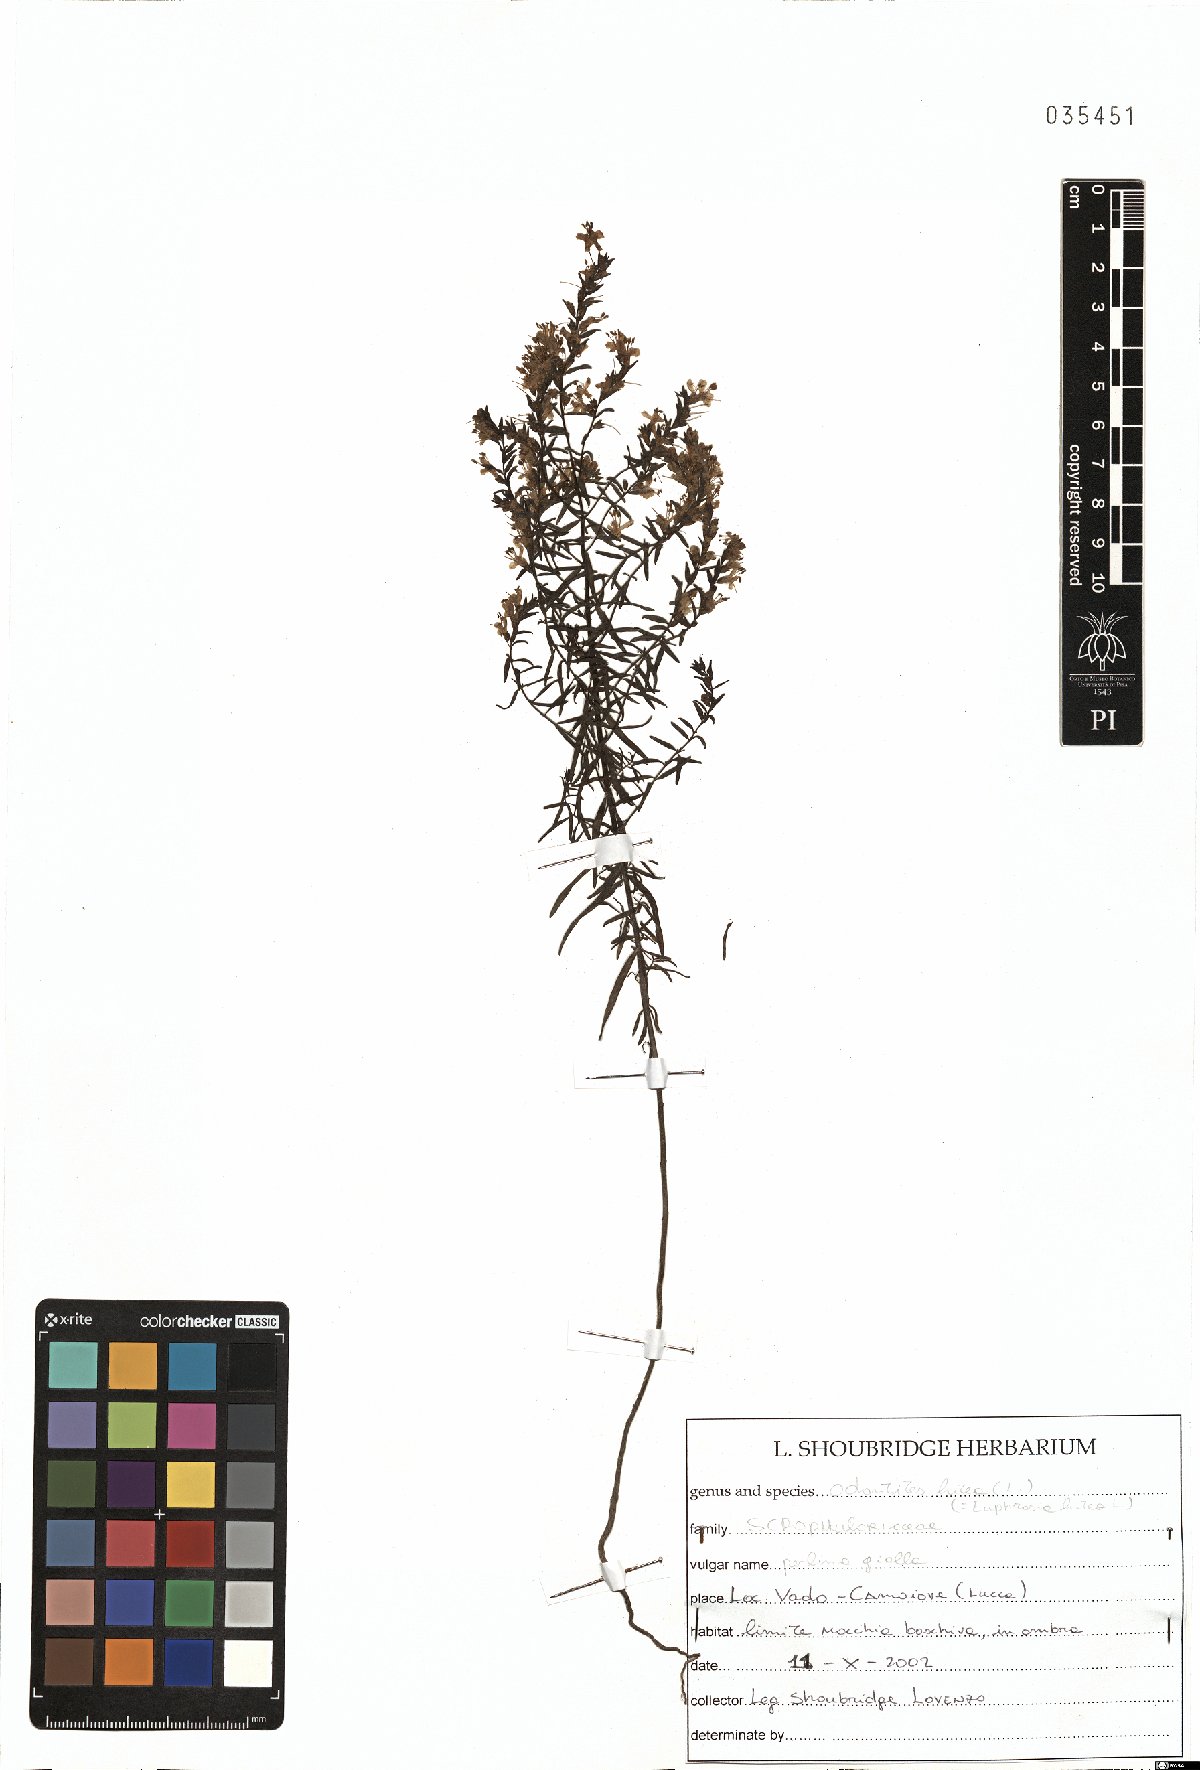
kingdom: Plantae
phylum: Tracheophyta
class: Magnoliopsida
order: Lamiales
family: Orobanchaceae
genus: Odontites
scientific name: Odontites luteus
